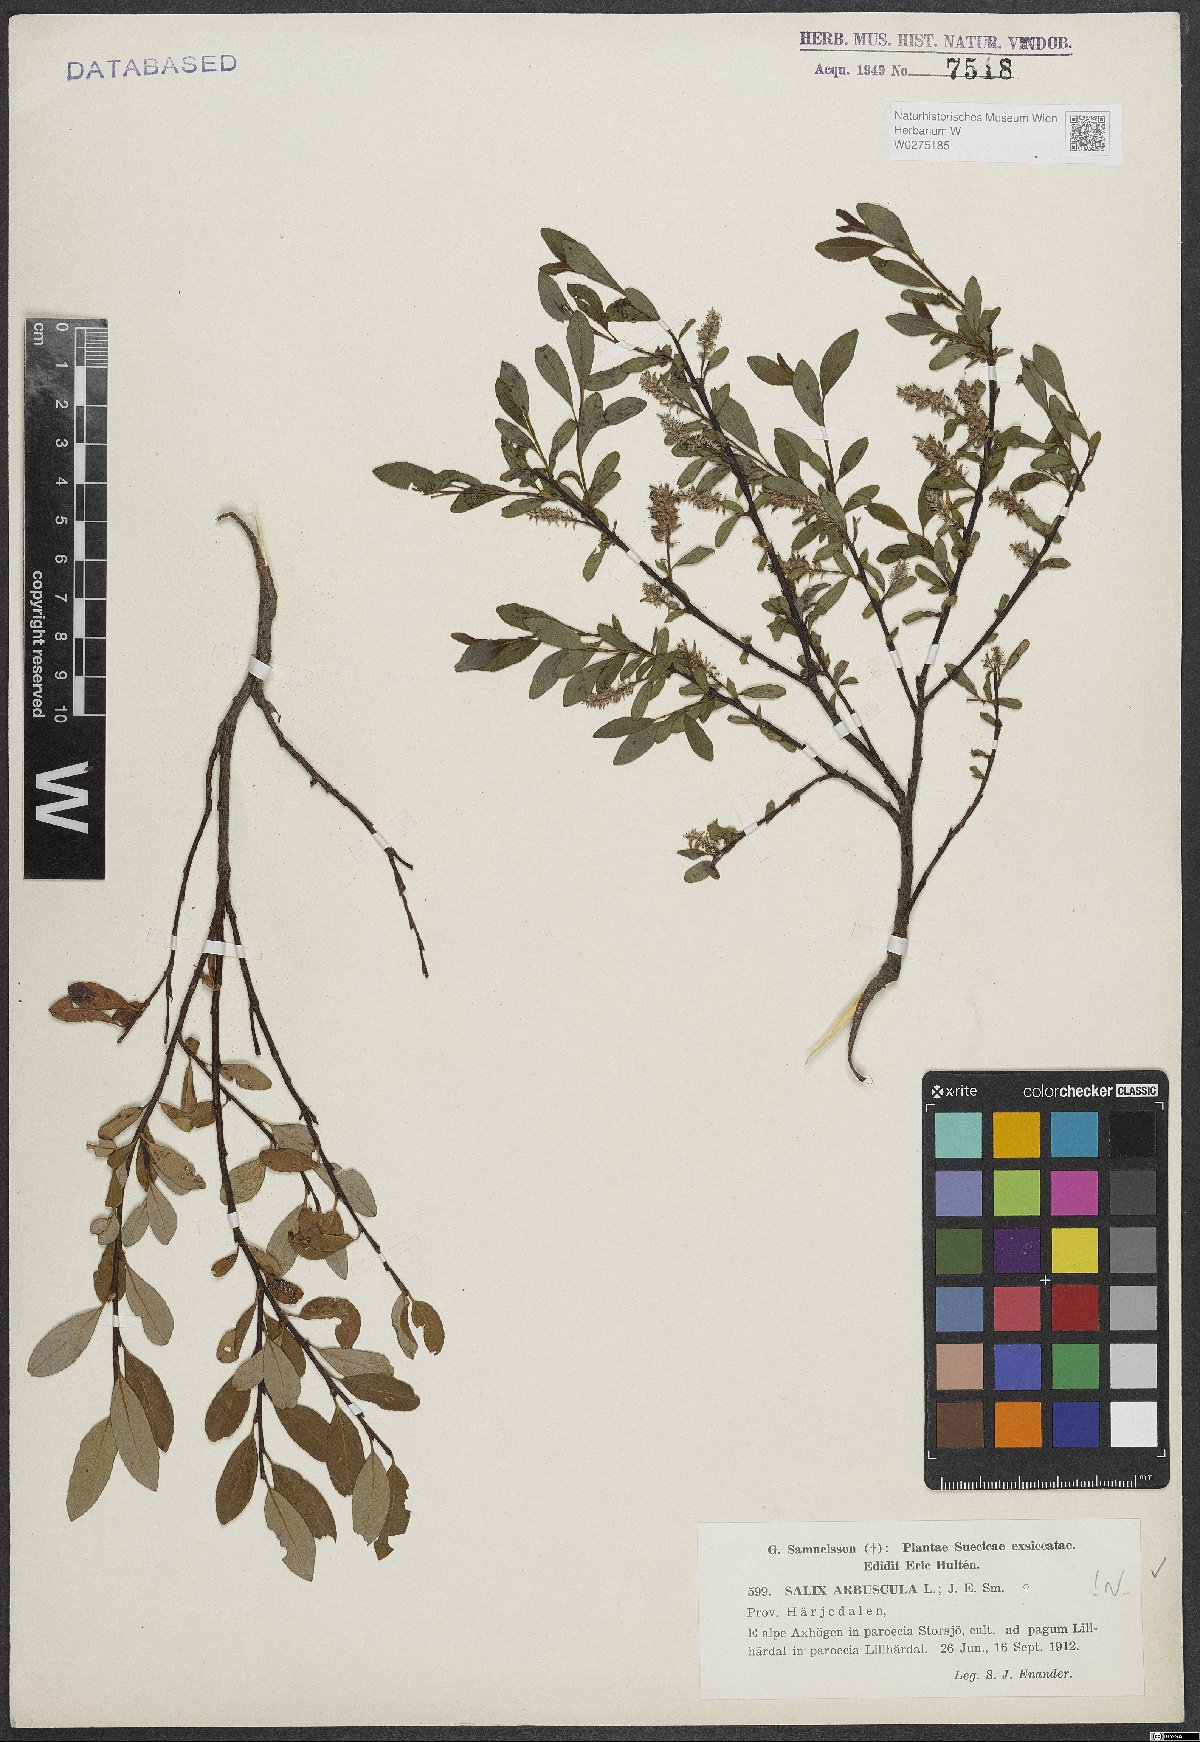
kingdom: Plantae
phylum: Tracheophyta
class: Magnoliopsida
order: Malpighiales
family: Salicaceae
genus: Salix
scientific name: Salix arbuscula
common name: Mountain willow
